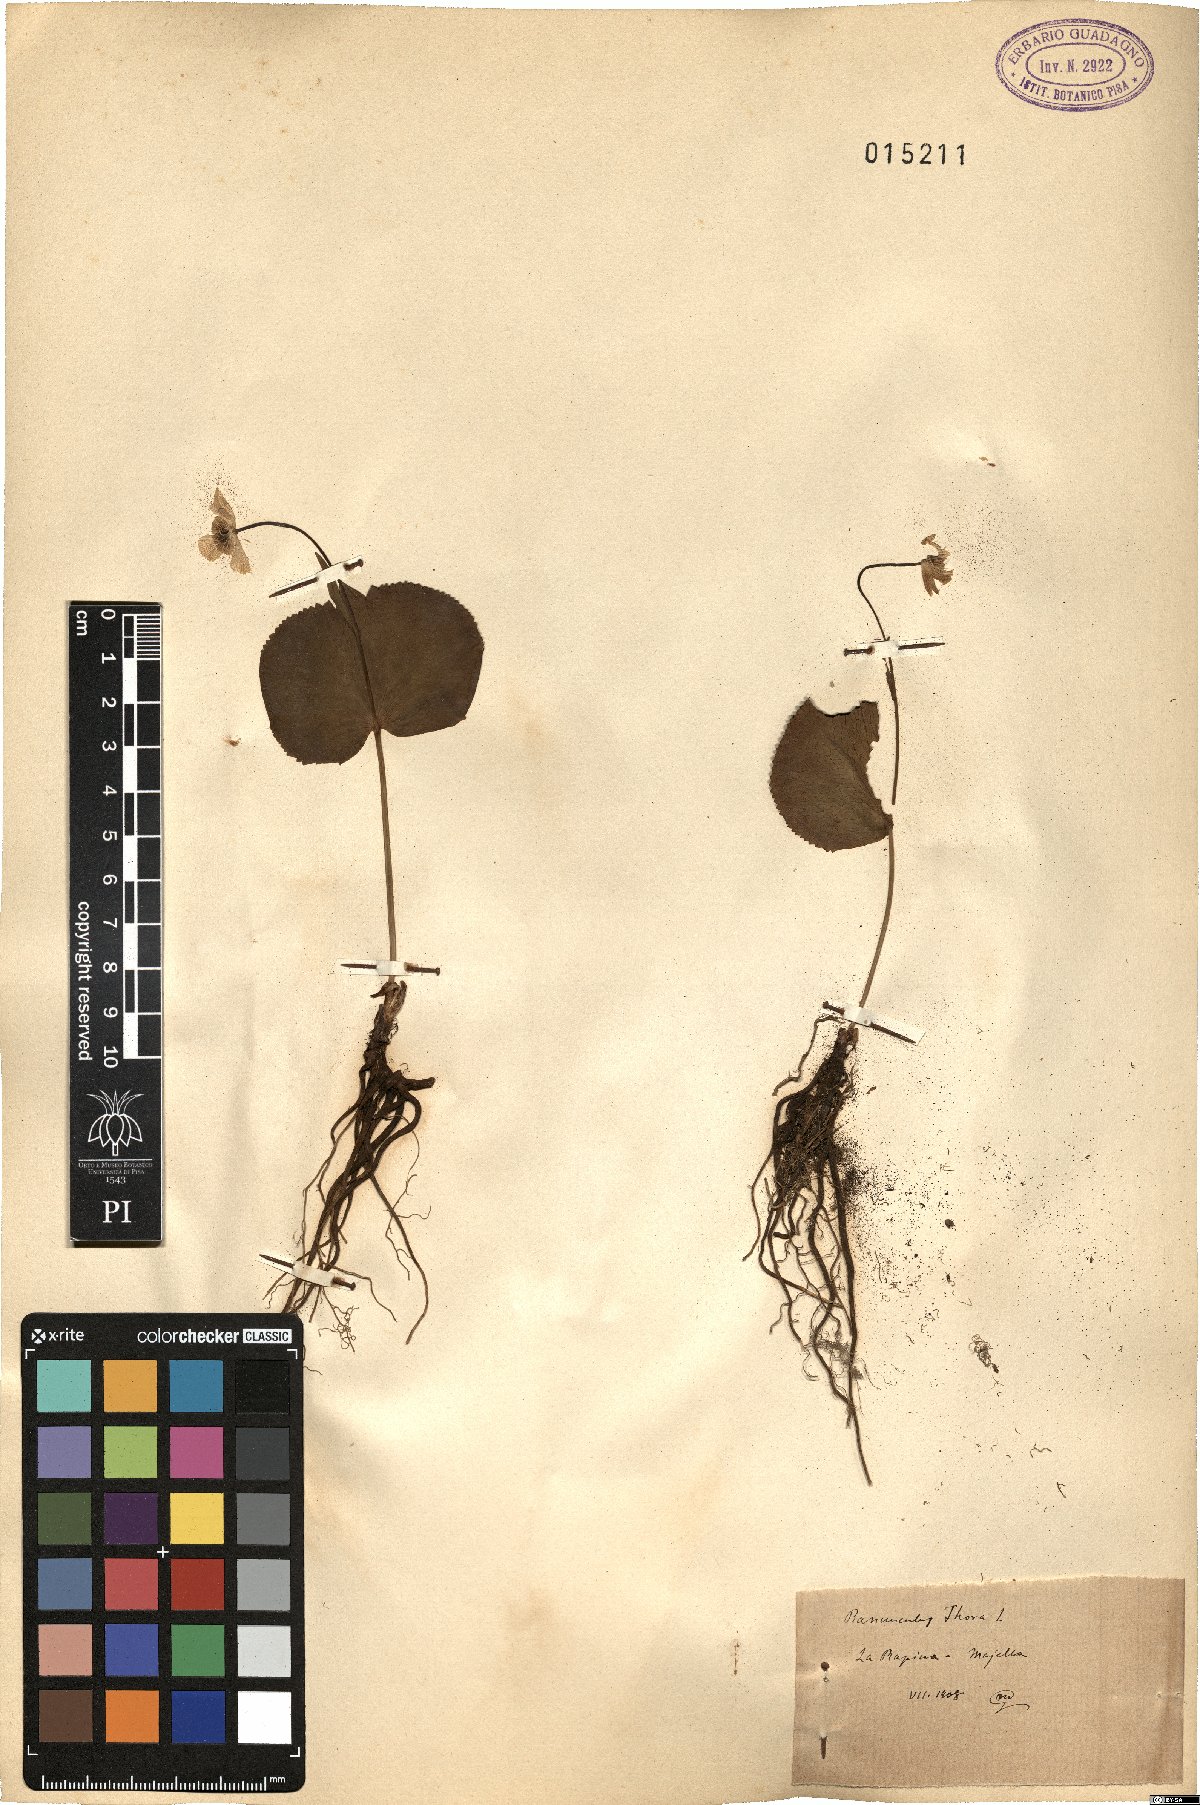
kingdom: Plantae
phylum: Tracheophyta
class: Magnoliopsida
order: Ranunculales
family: Ranunculaceae
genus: Ranunculus
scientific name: Ranunculus thora
